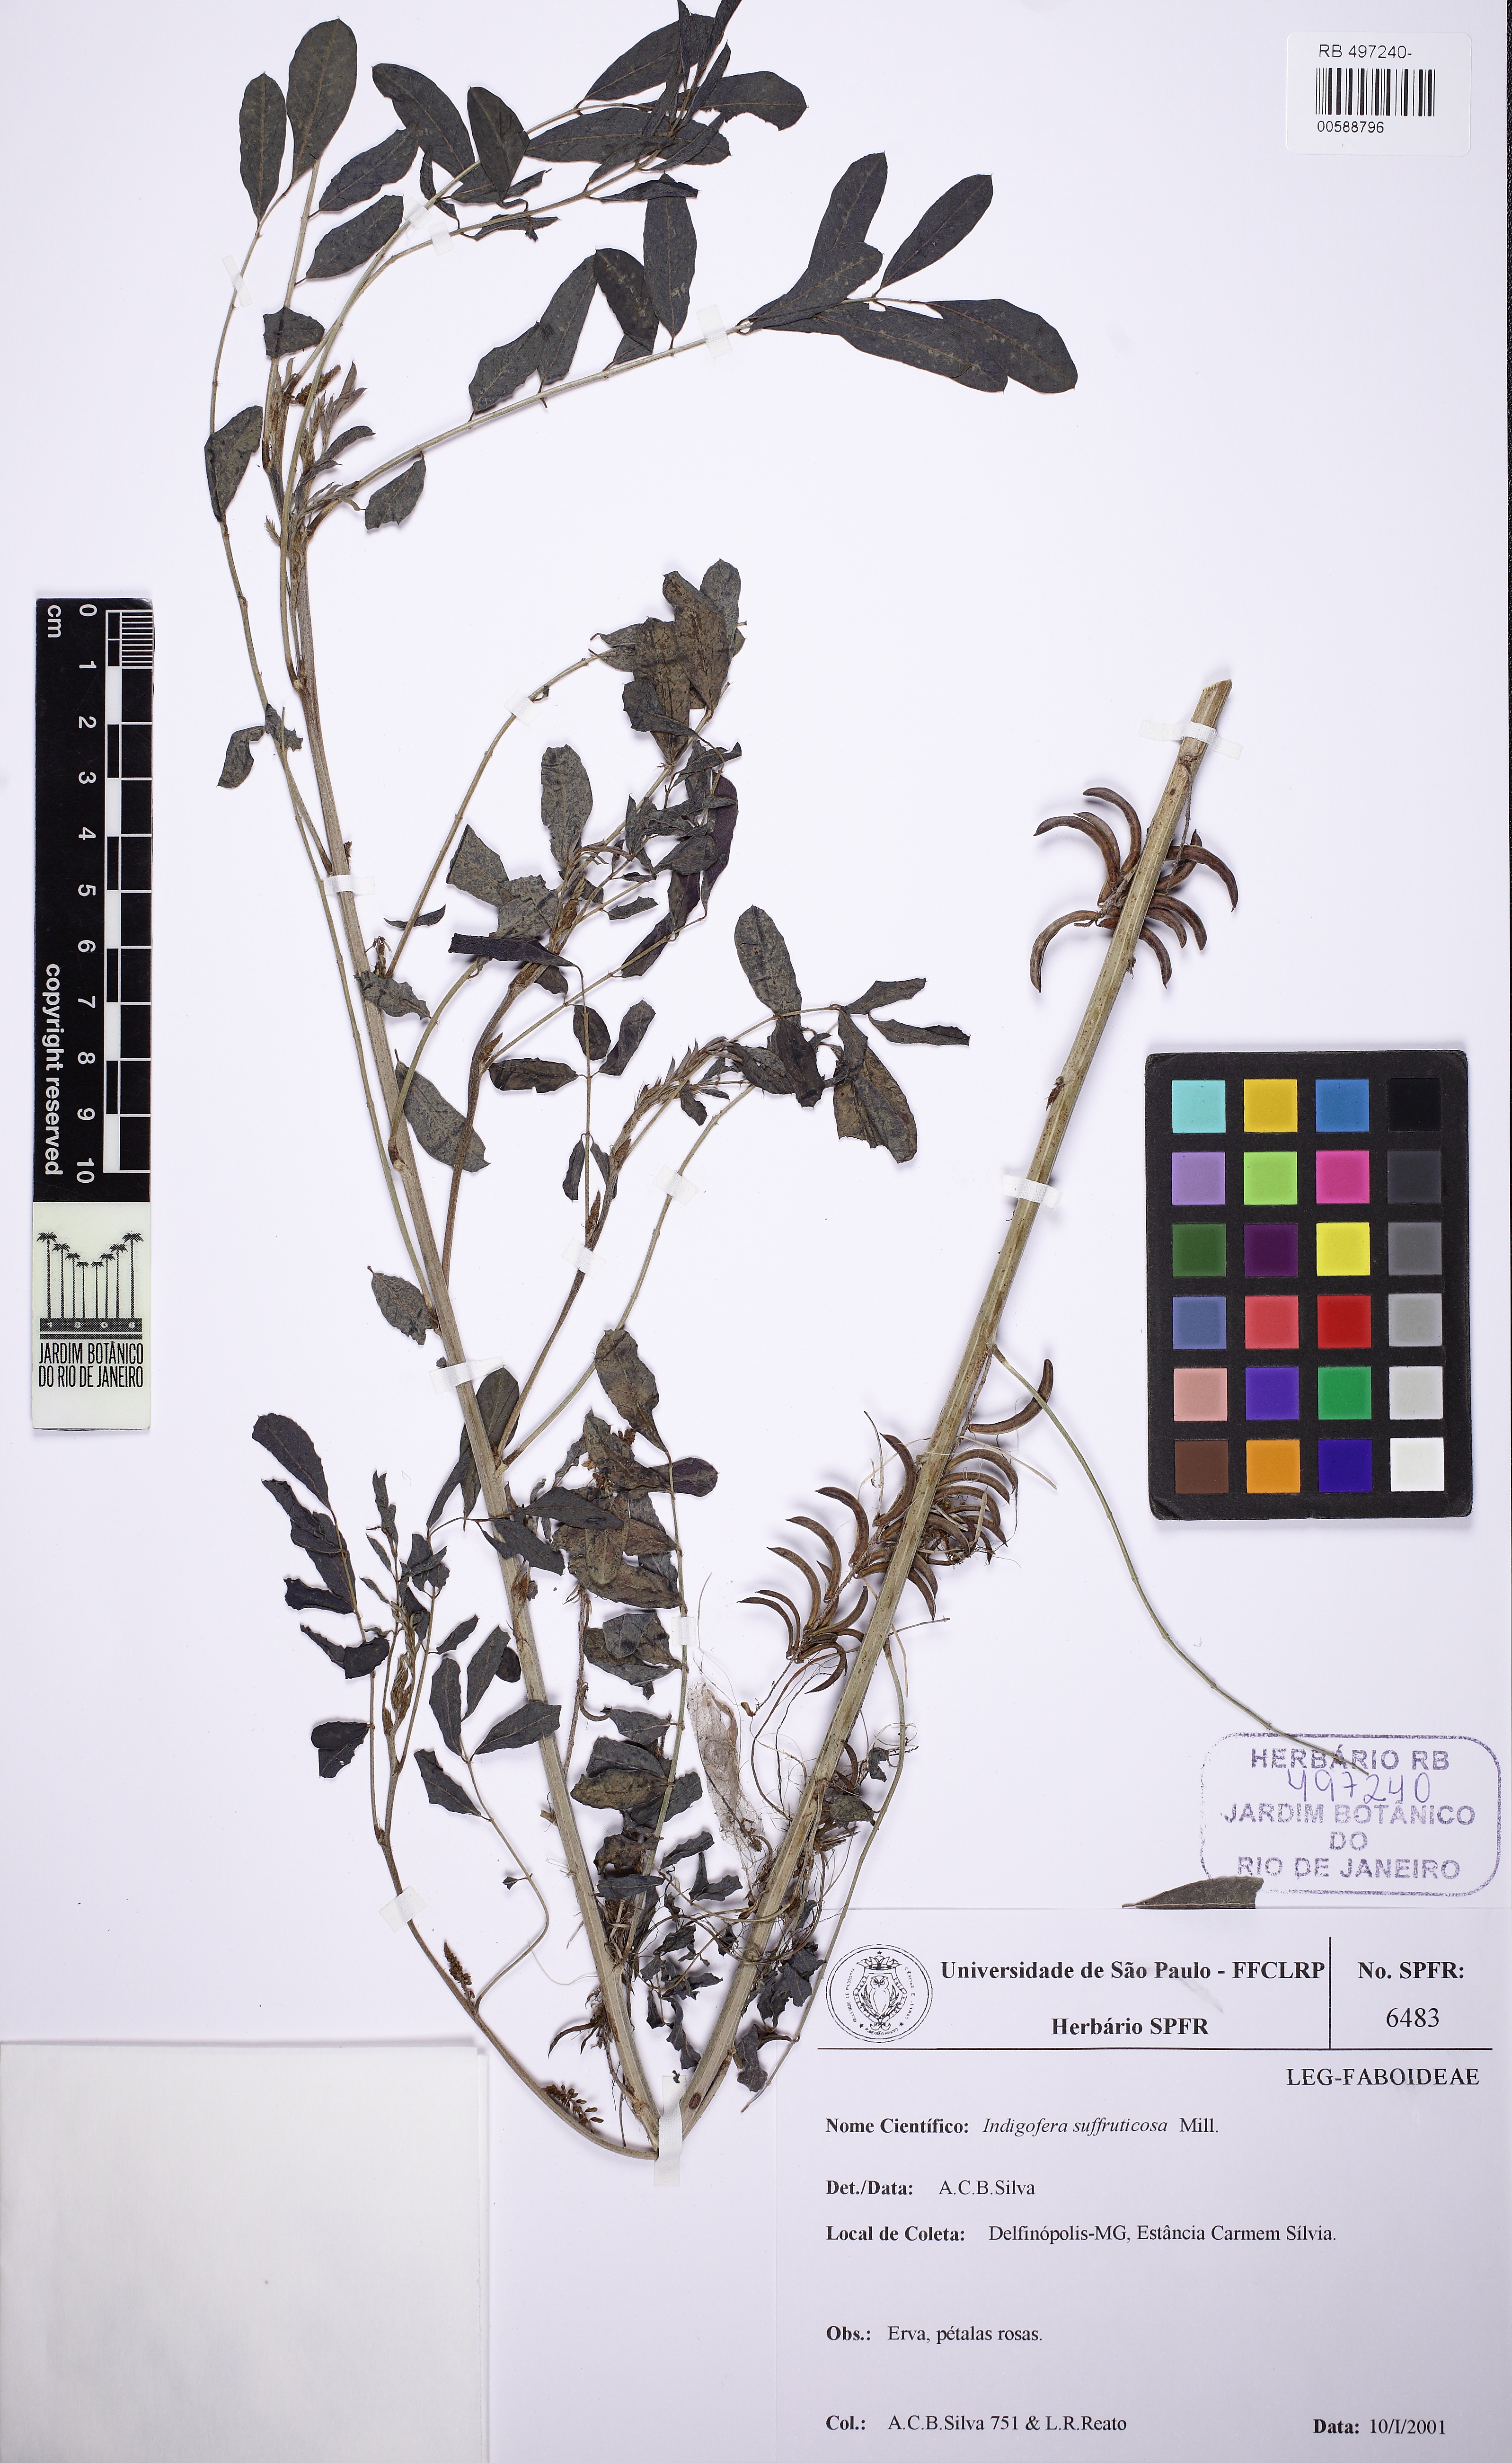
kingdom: Plantae
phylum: Tracheophyta
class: Magnoliopsida
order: Fabales
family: Fabaceae
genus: Indigofera
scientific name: Indigofera suffruticosa
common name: Anil de pasto
